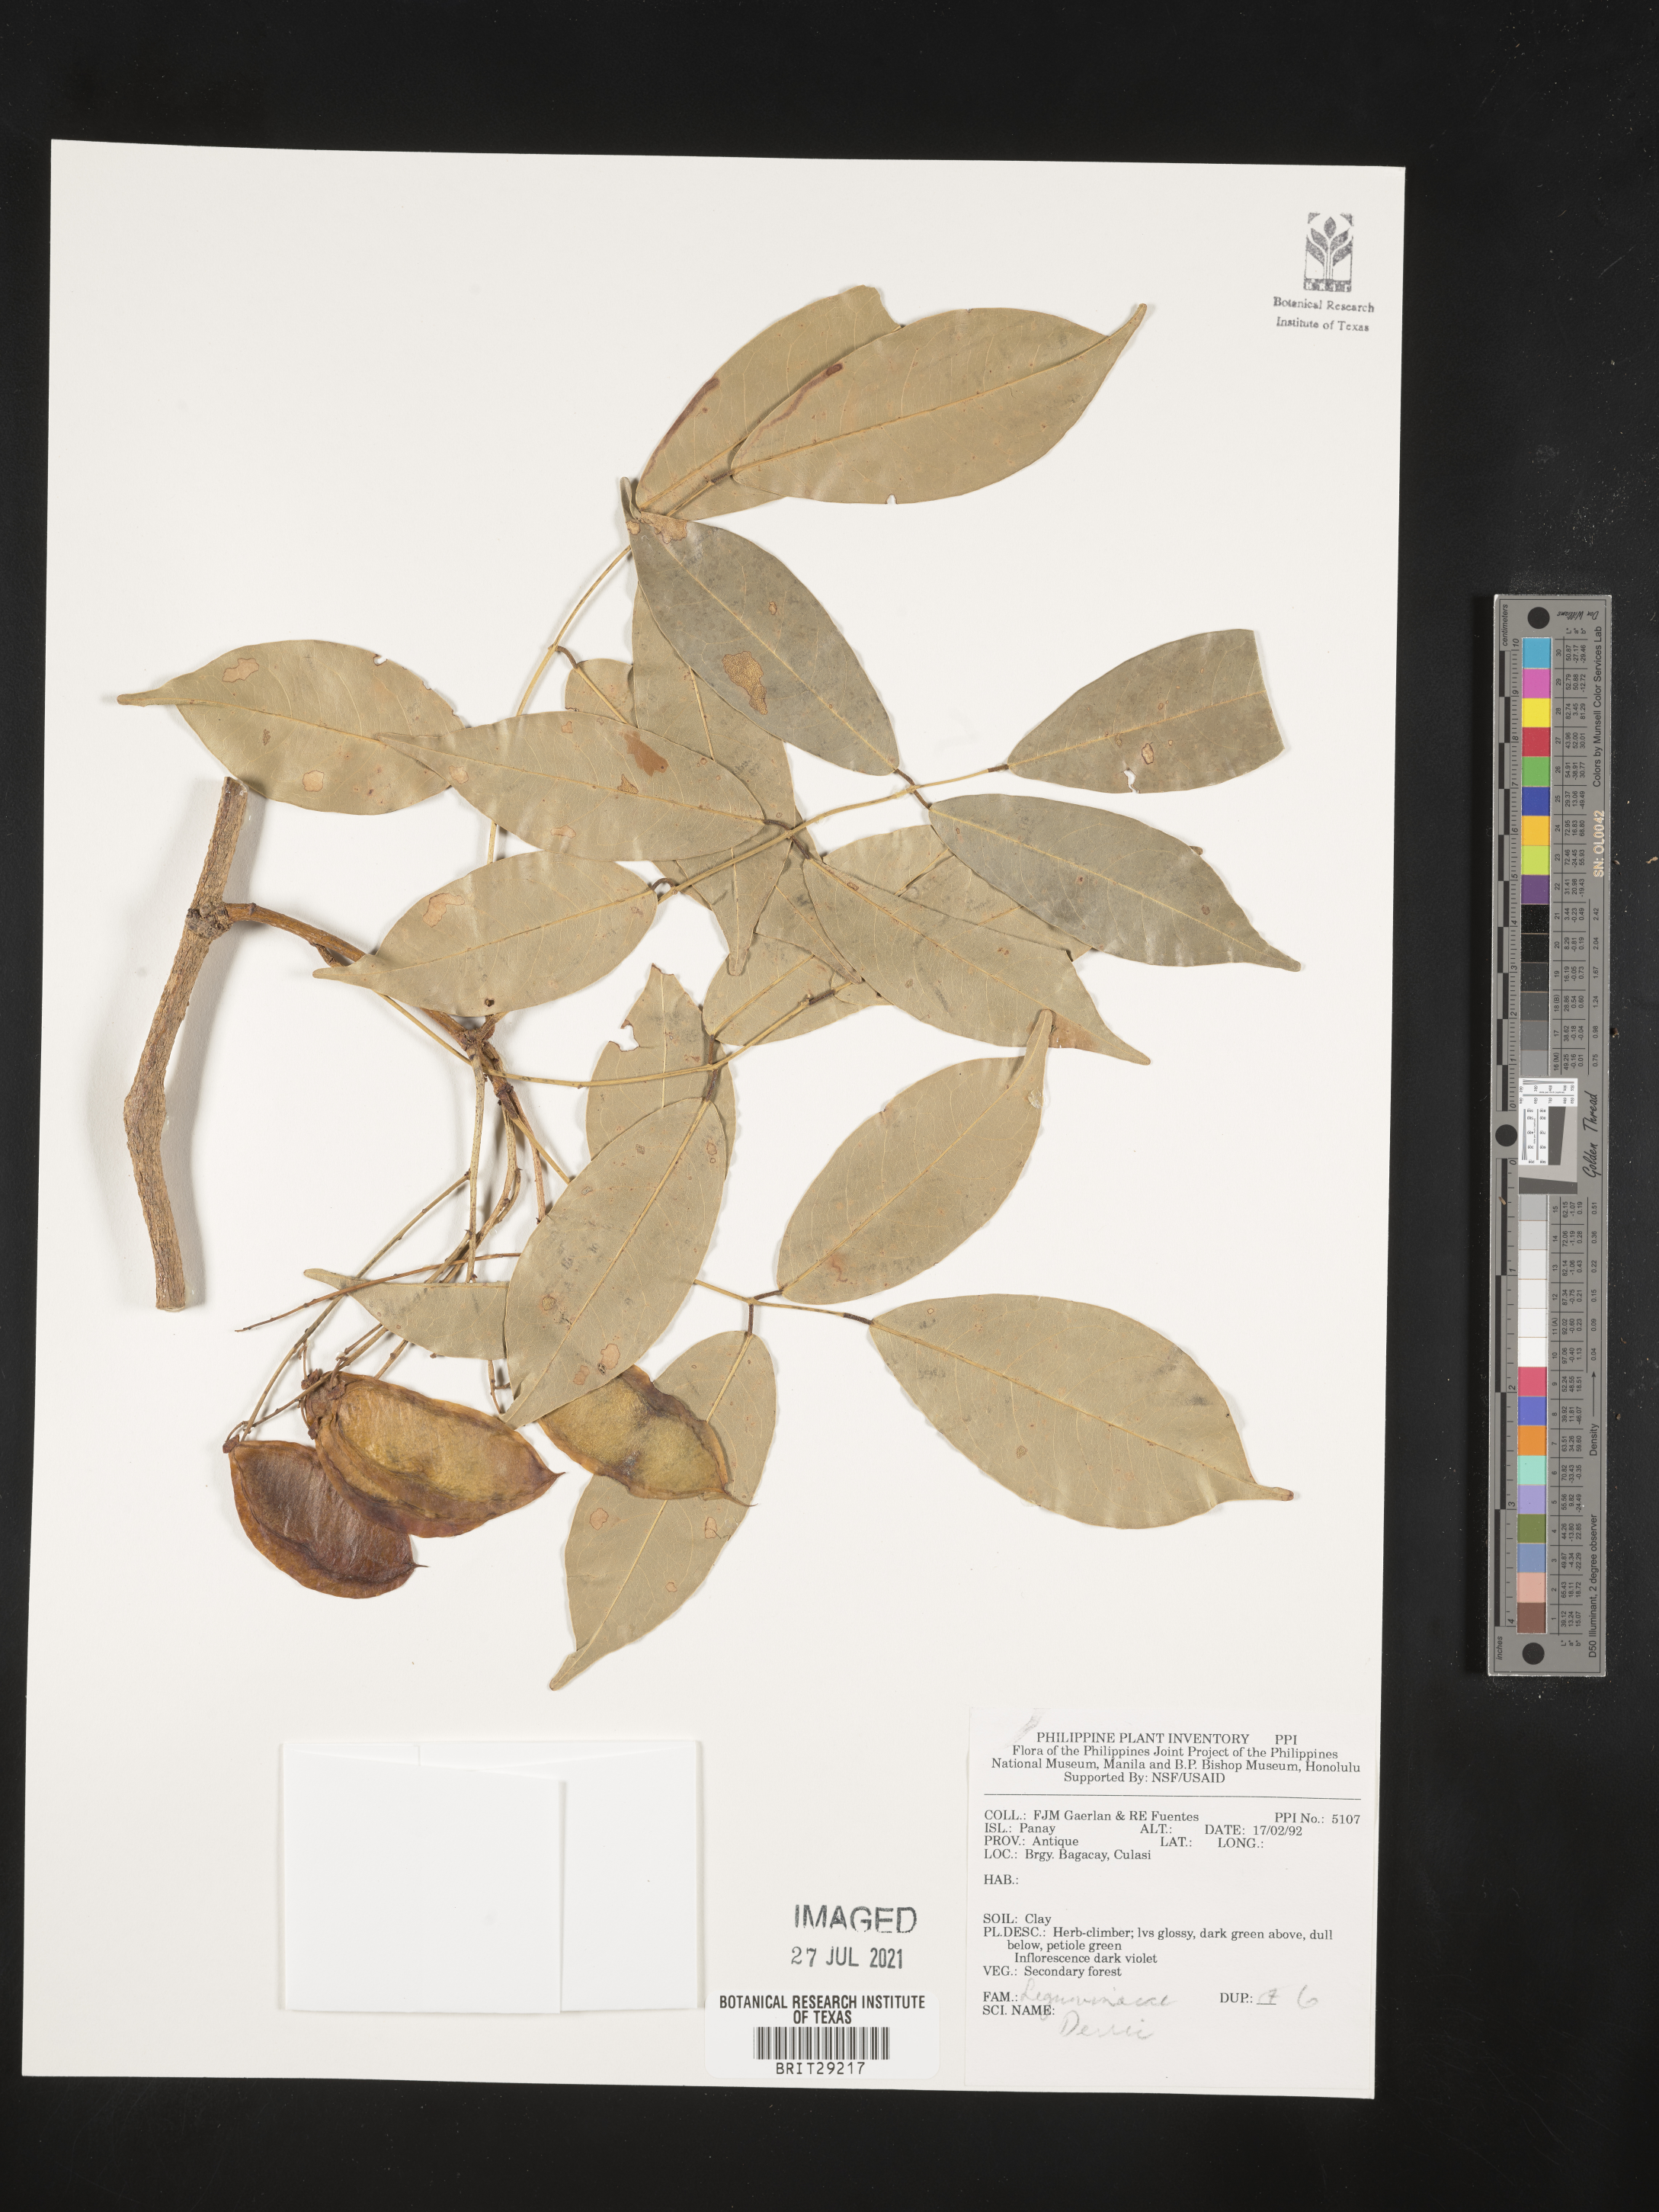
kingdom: Plantae
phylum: Tracheophyta
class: Magnoliopsida
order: Fabales
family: Fabaceae
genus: Derris
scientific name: Derris
